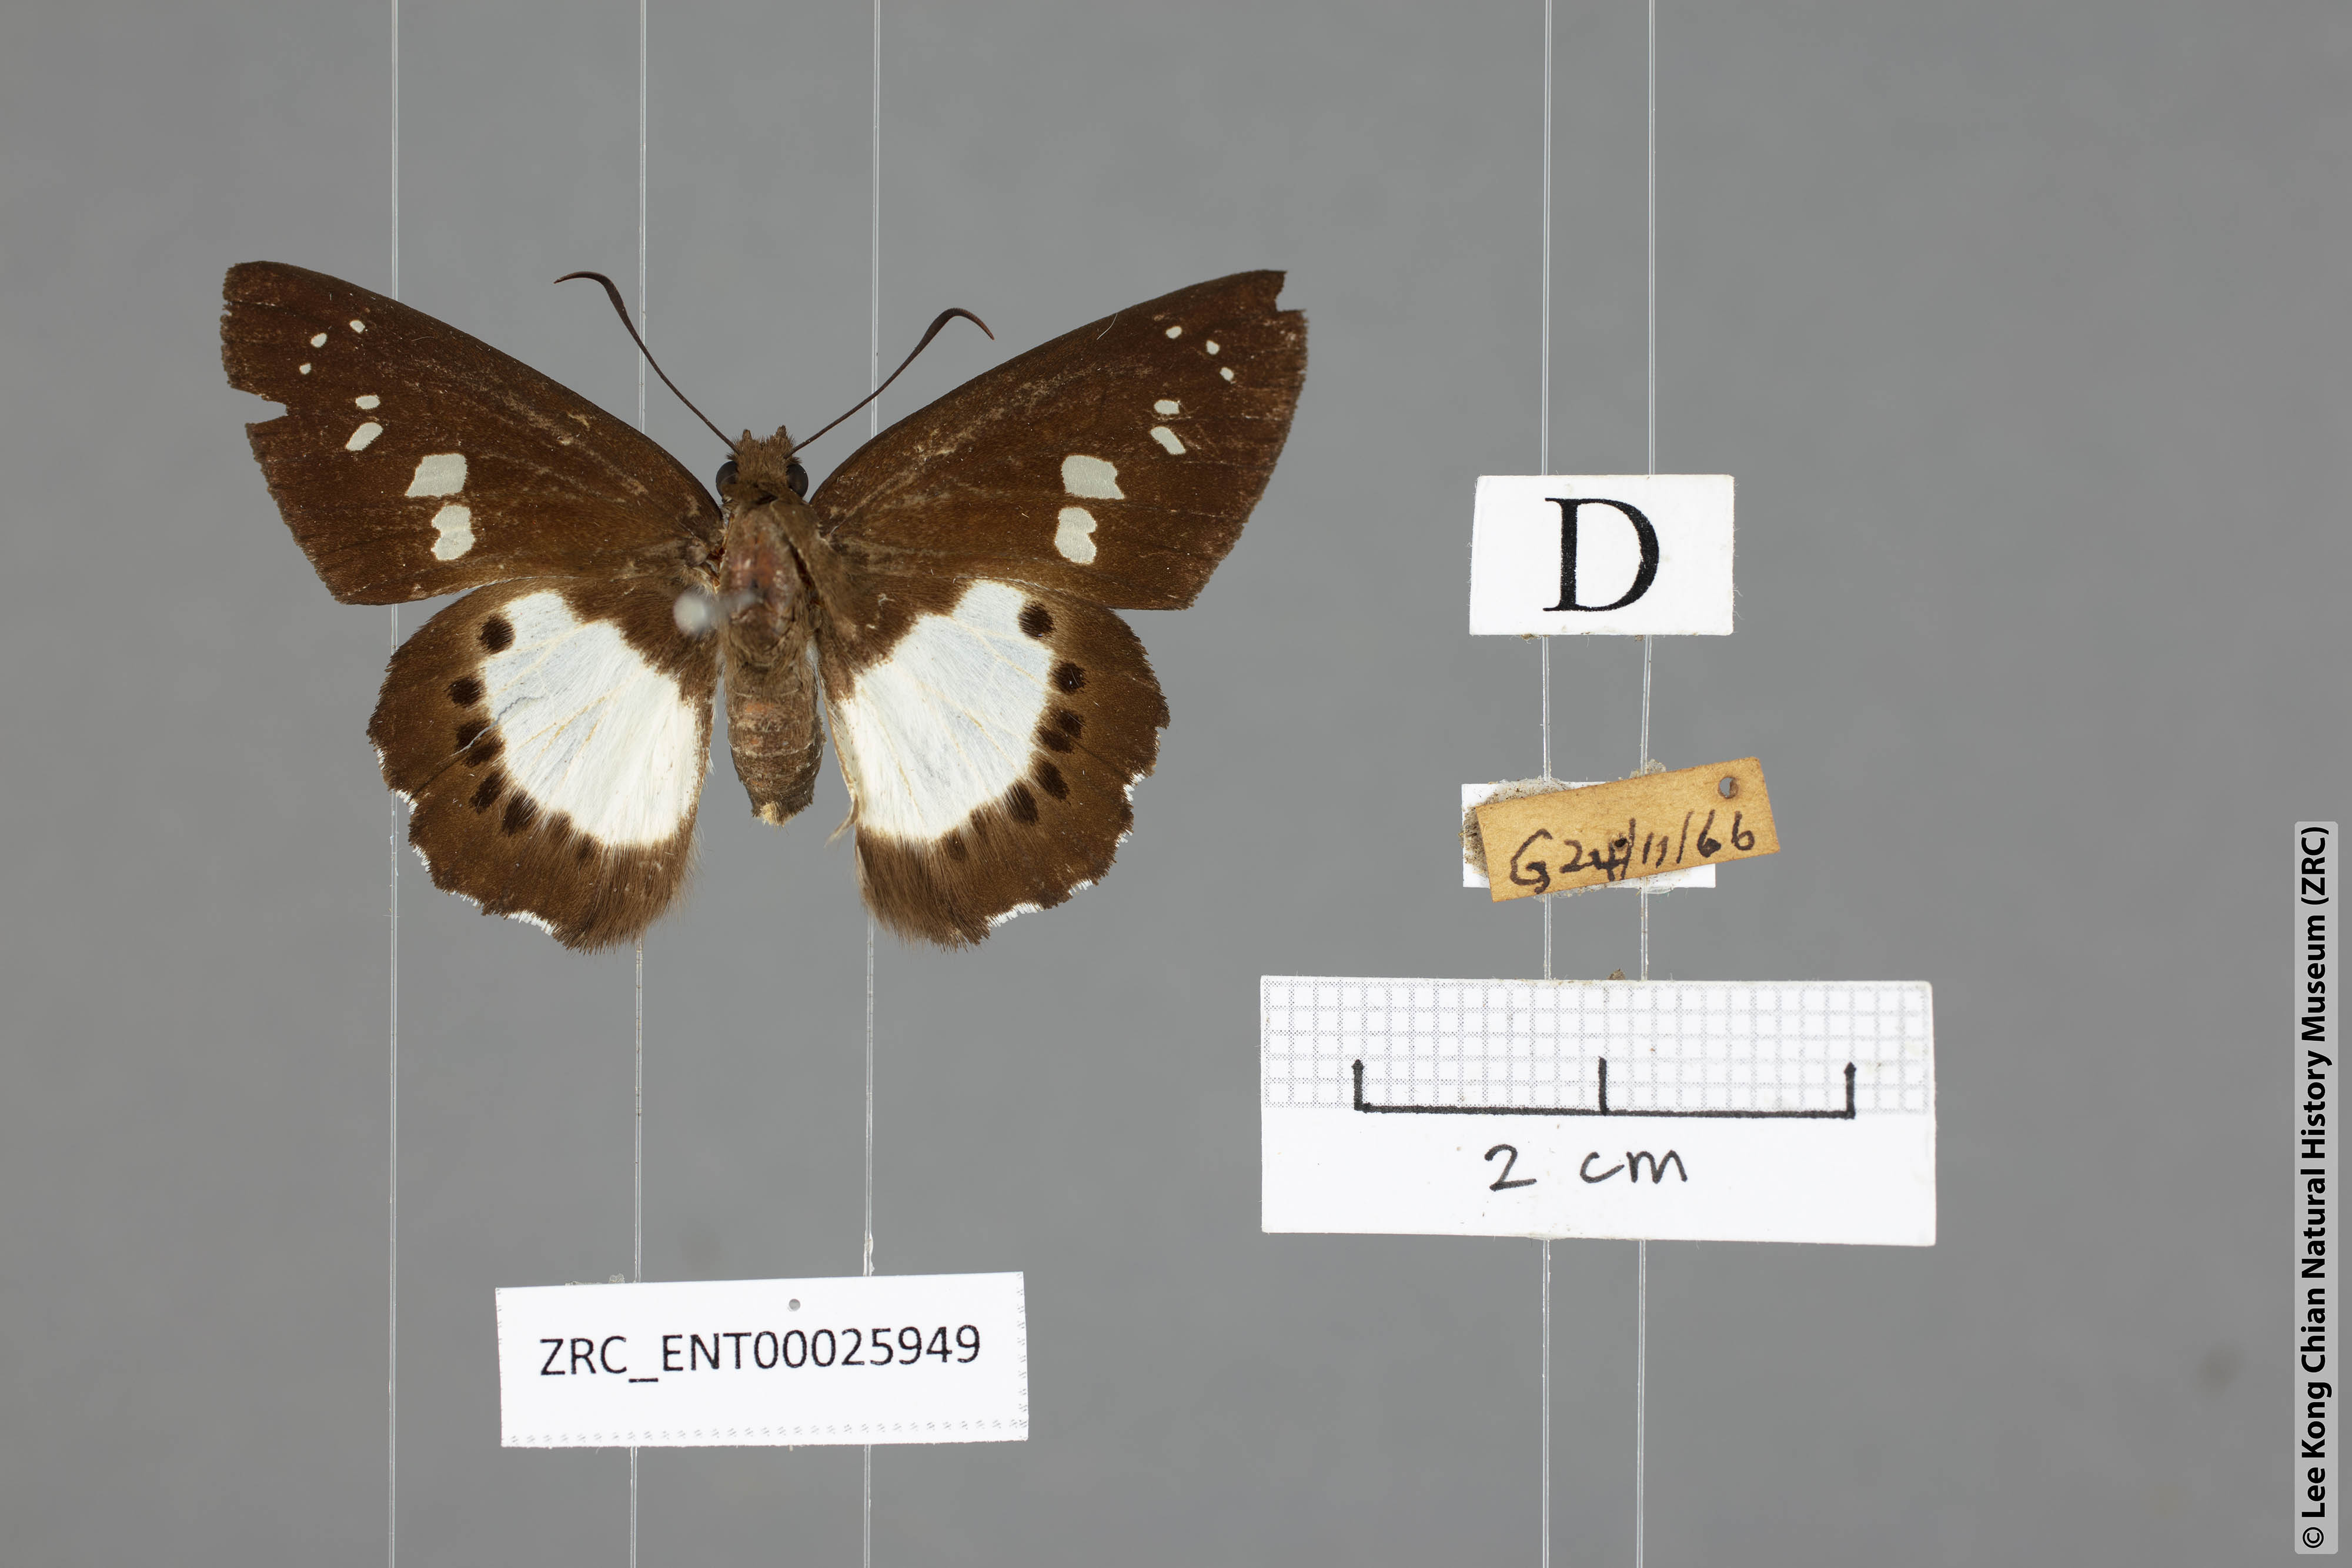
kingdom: Animalia
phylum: Arthropoda
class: Insecta
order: Lepidoptera
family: Hesperiidae
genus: Seseria
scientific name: Seseria affinis
